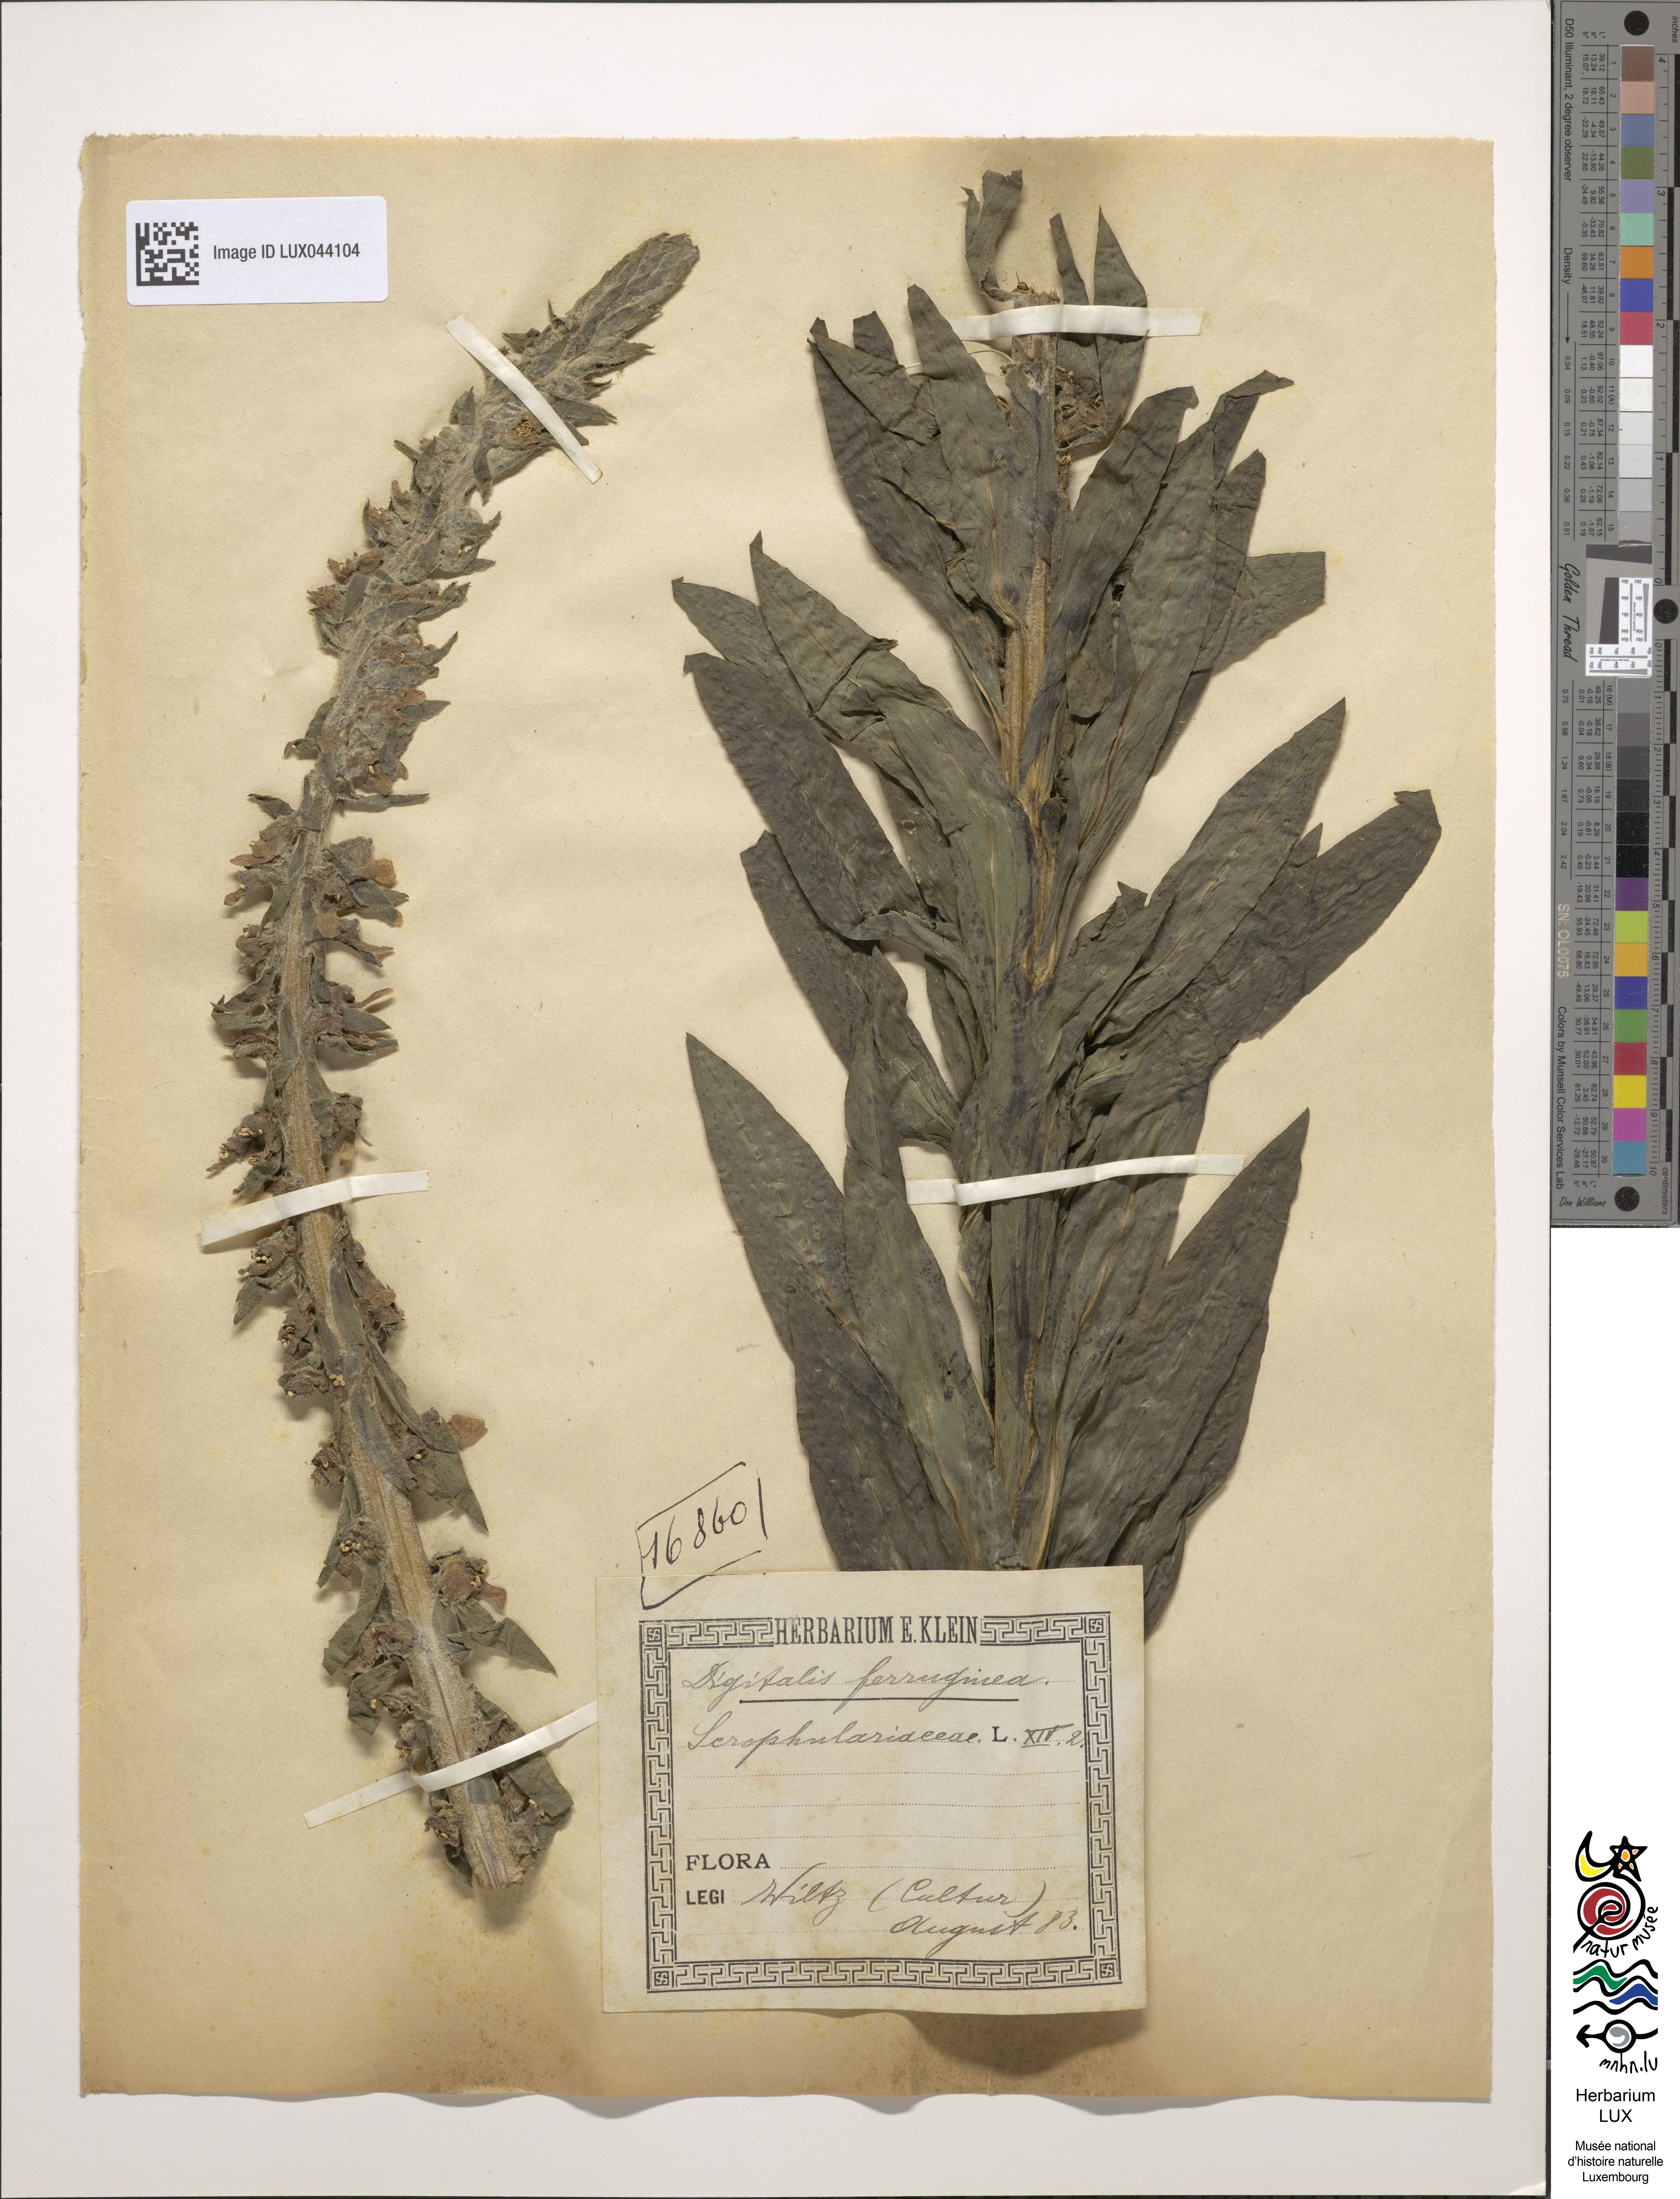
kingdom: Plantae
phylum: Tracheophyta
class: Magnoliopsida
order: Lamiales
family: Plantaginaceae
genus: Digitalis
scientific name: Digitalis ferruginea
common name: Rusty foxglove
